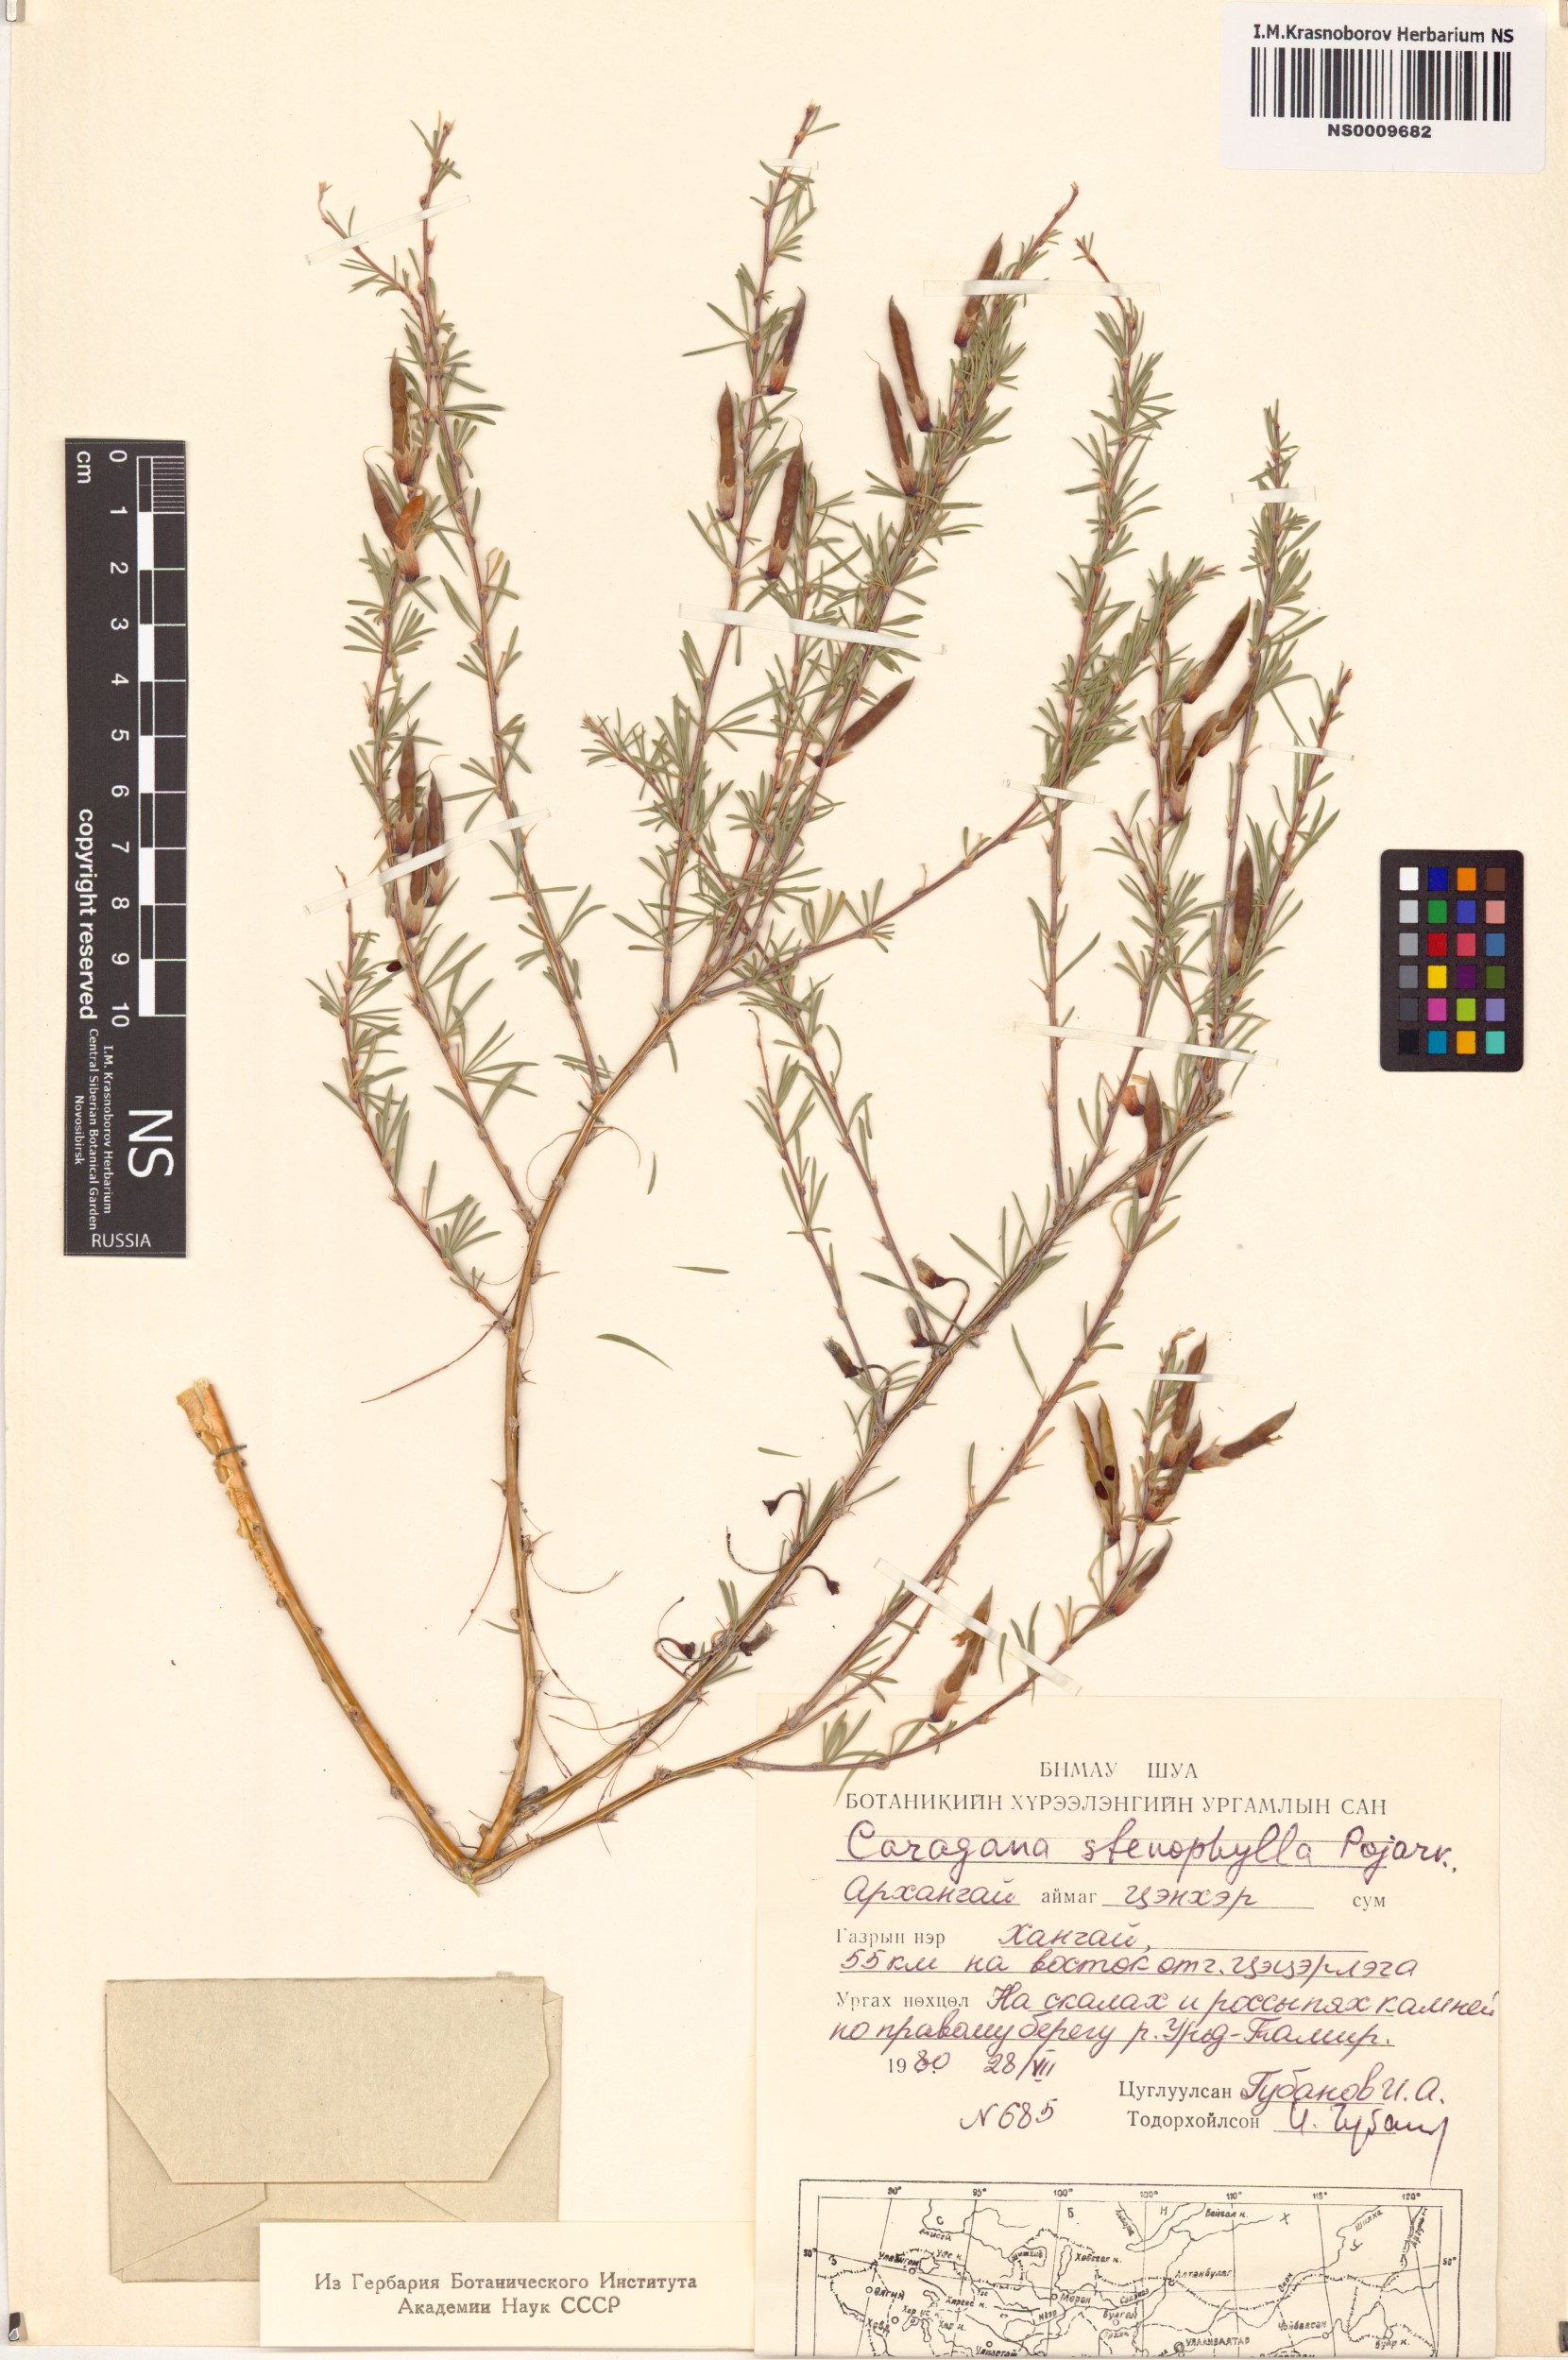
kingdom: Plantae
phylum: Tracheophyta
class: Magnoliopsida
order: Fabales
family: Fabaceae
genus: Caragana
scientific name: Caragana stenophylla
